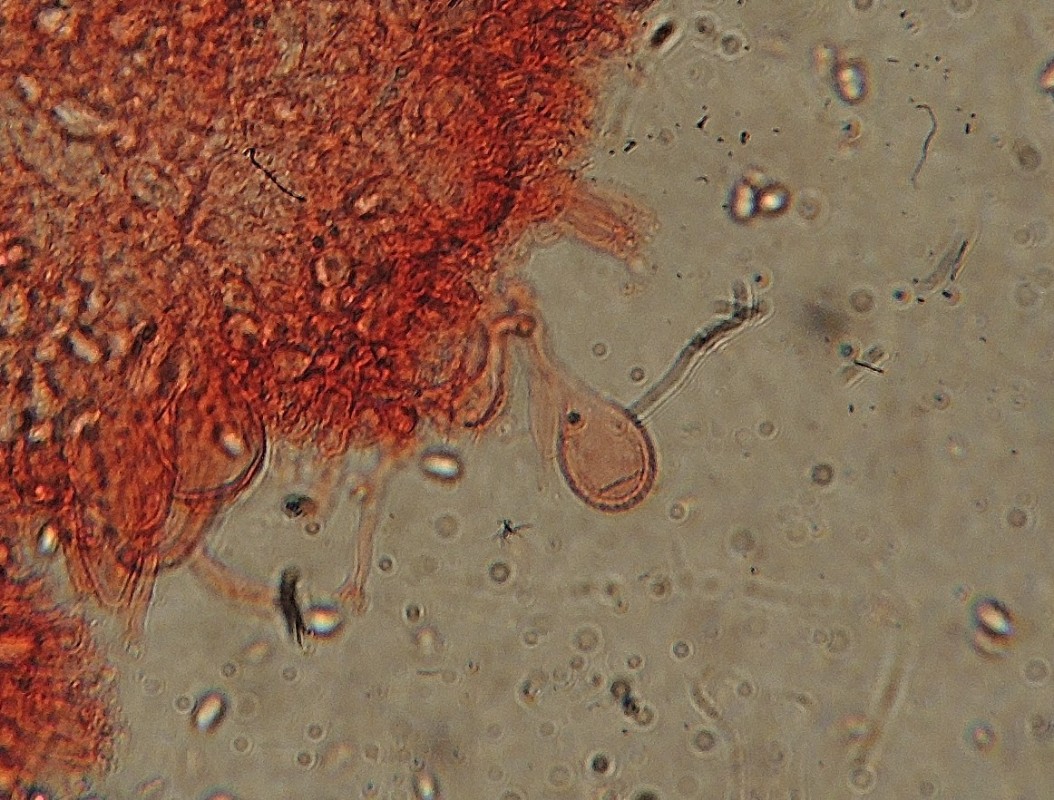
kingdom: Fungi
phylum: Basidiomycota
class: Agaricomycetes
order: Agaricales
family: Mycenaceae
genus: Mycena
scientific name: Mycena metata
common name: rødlig huesvamp
